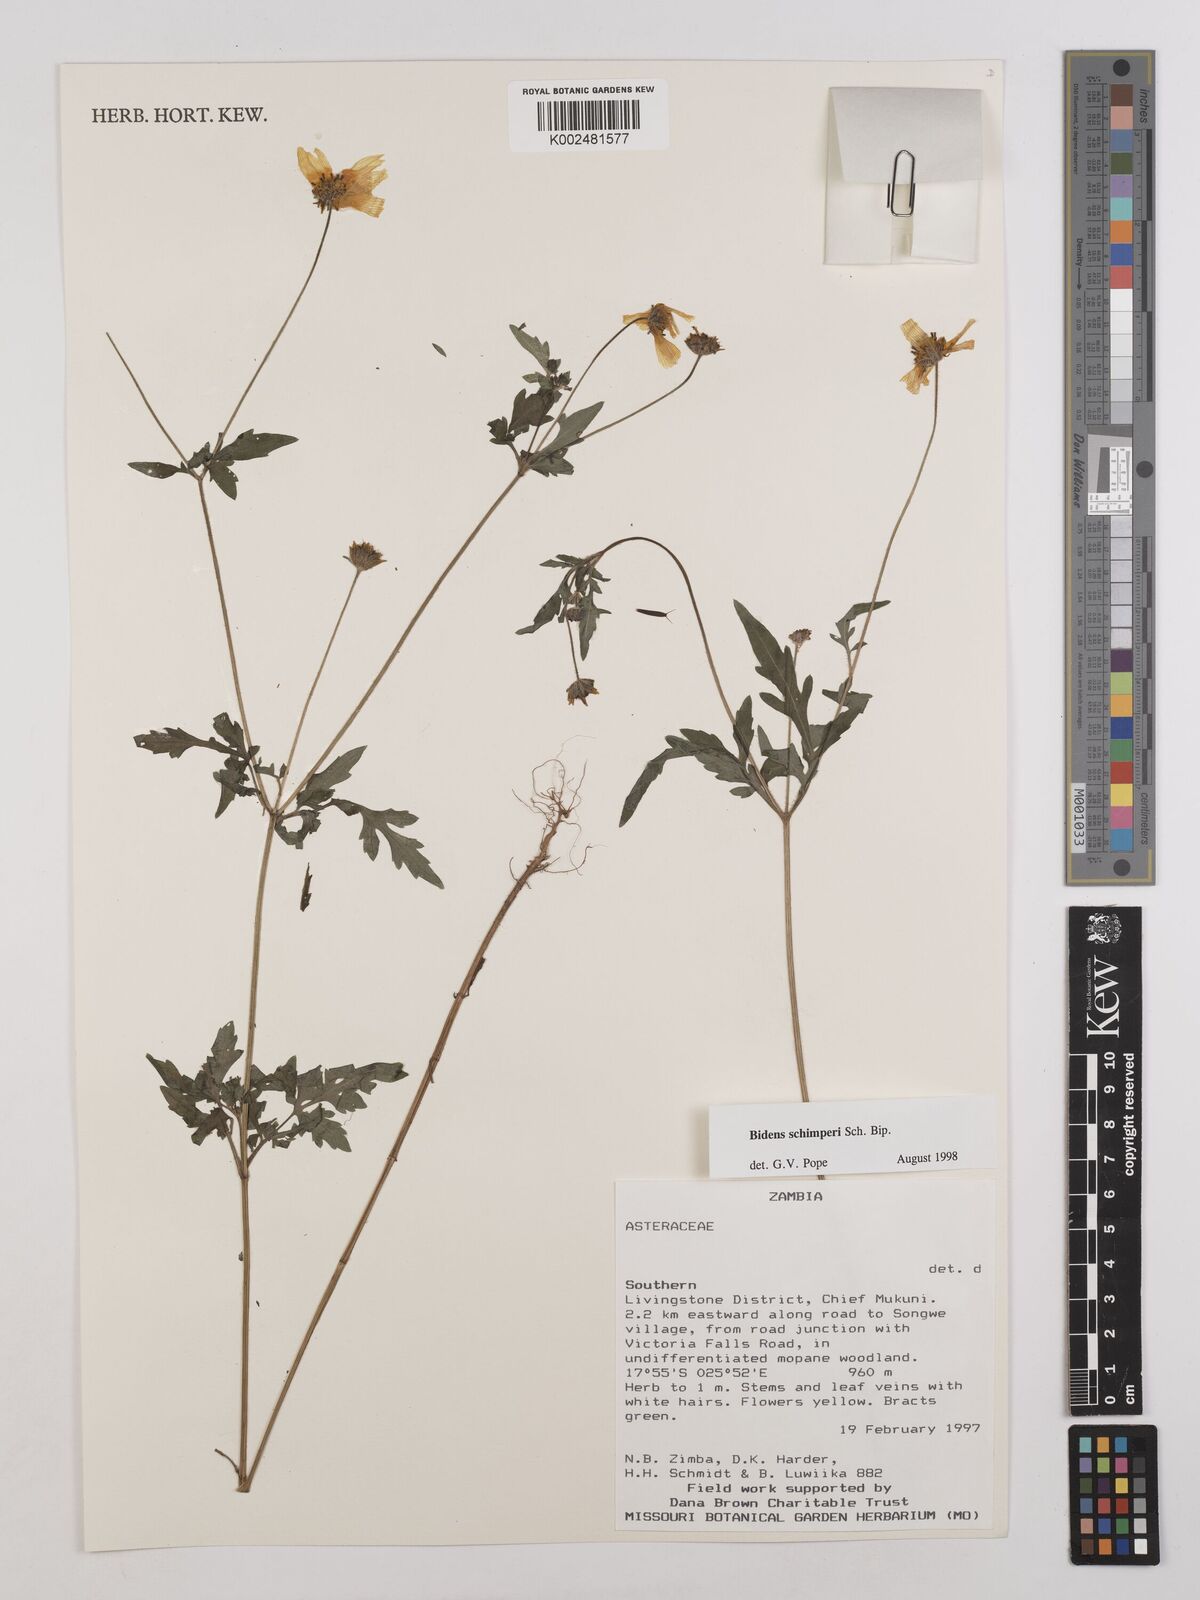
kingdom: Plantae
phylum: Tracheophyta
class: Magnoliopsida
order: Asterales
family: Asteraceae
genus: Bidens
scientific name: Bidens schimperi
